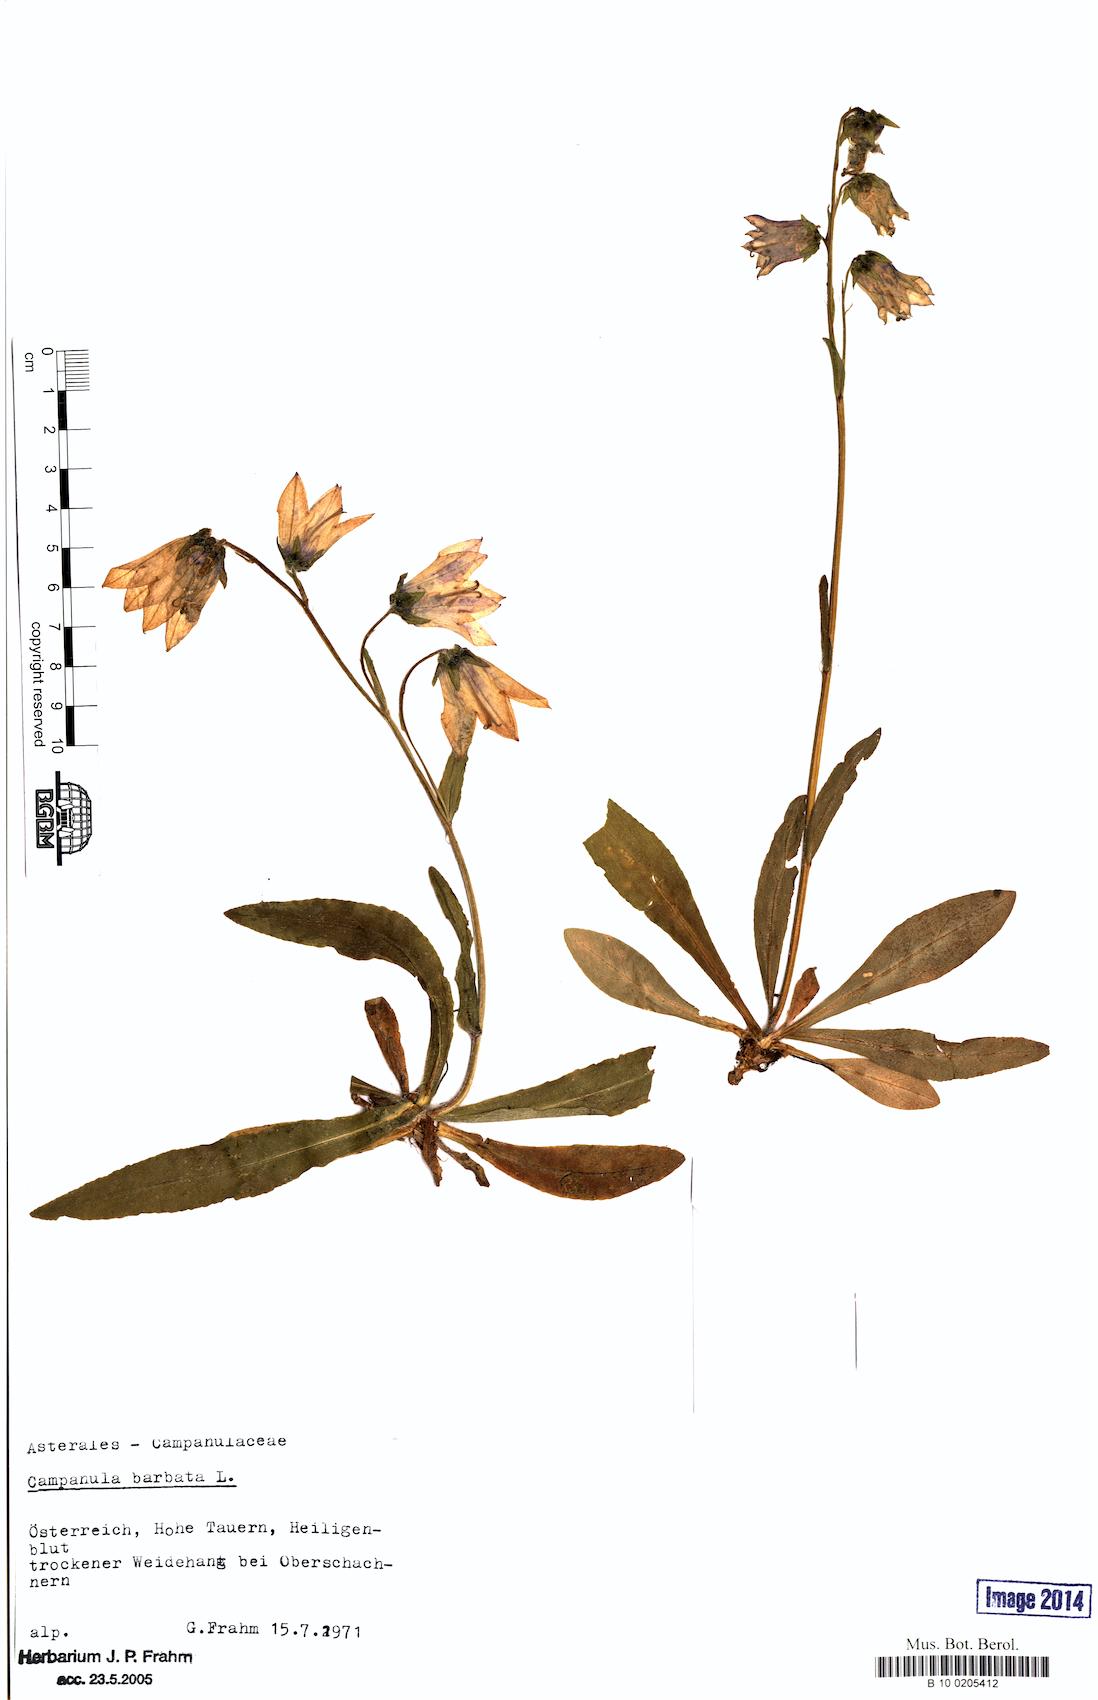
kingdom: Plantae
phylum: Tracheophyta
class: Magnoliopsida
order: Asterales
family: Campanulaceae
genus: Campanula
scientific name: Campanula barbata
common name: Bearded bellflower
